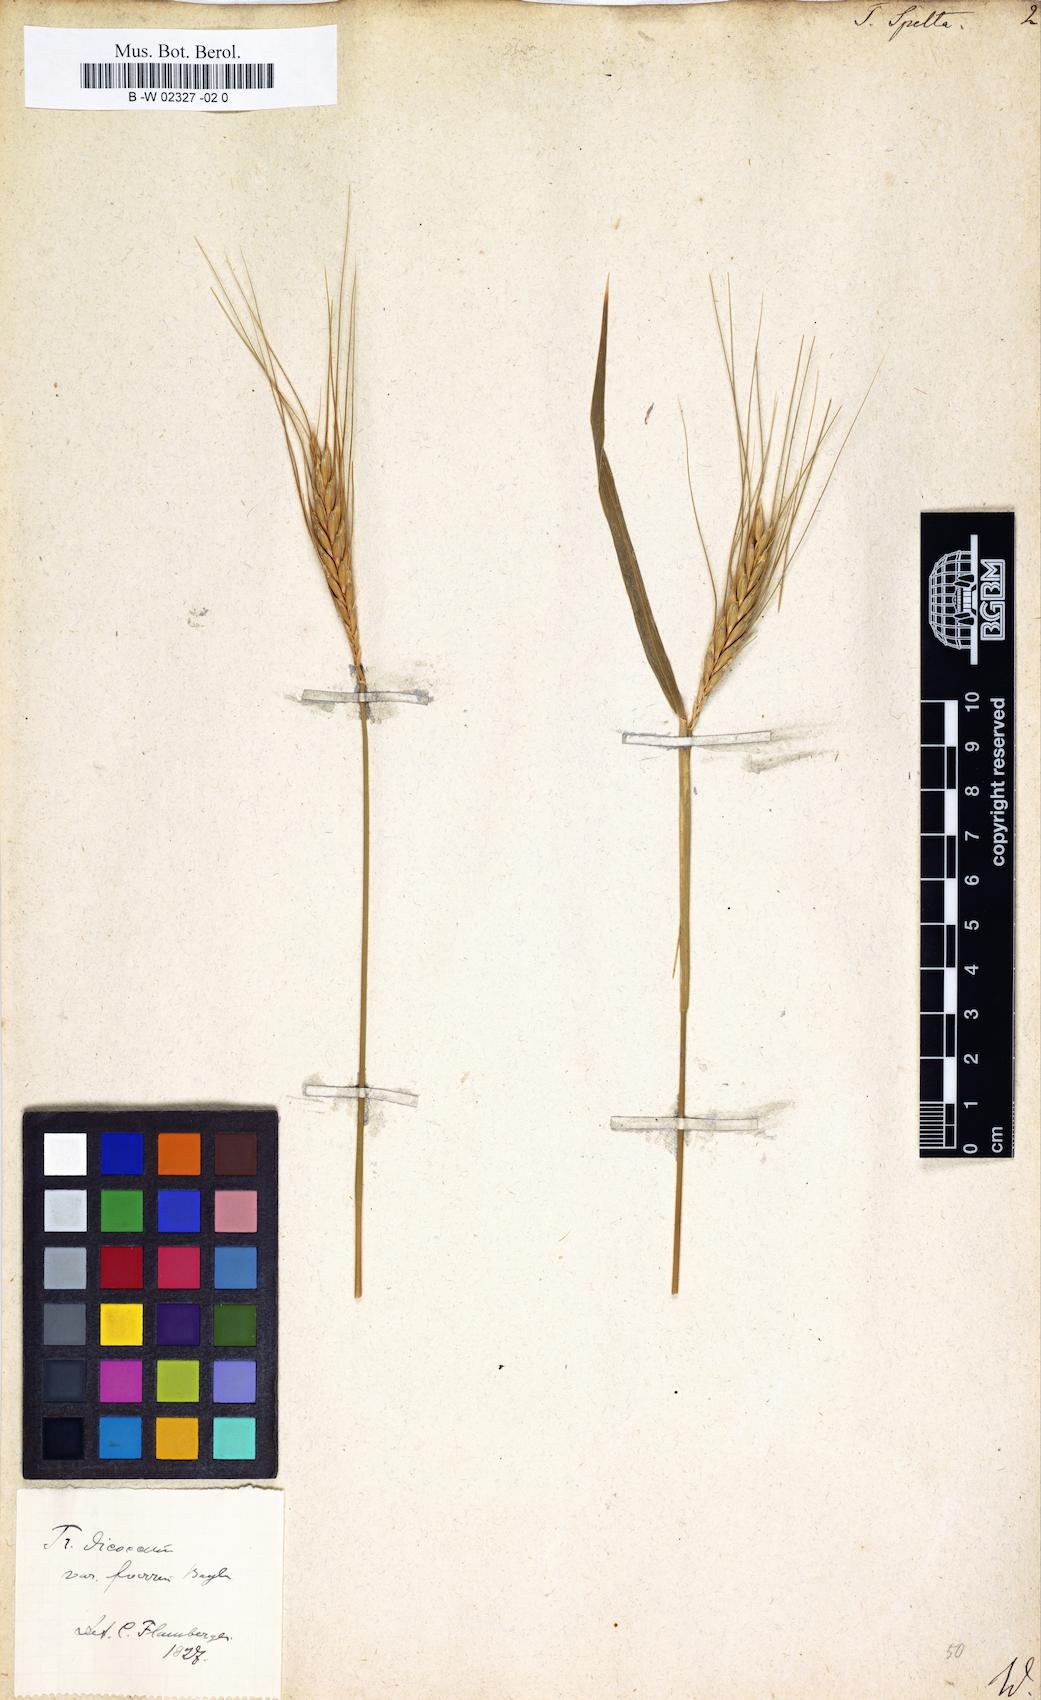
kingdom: Plantae
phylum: Tracheophyta
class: Liliopsida
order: Poales
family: Poaceae
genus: Triticum
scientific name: Triticum turgidum
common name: Rivet wheat
